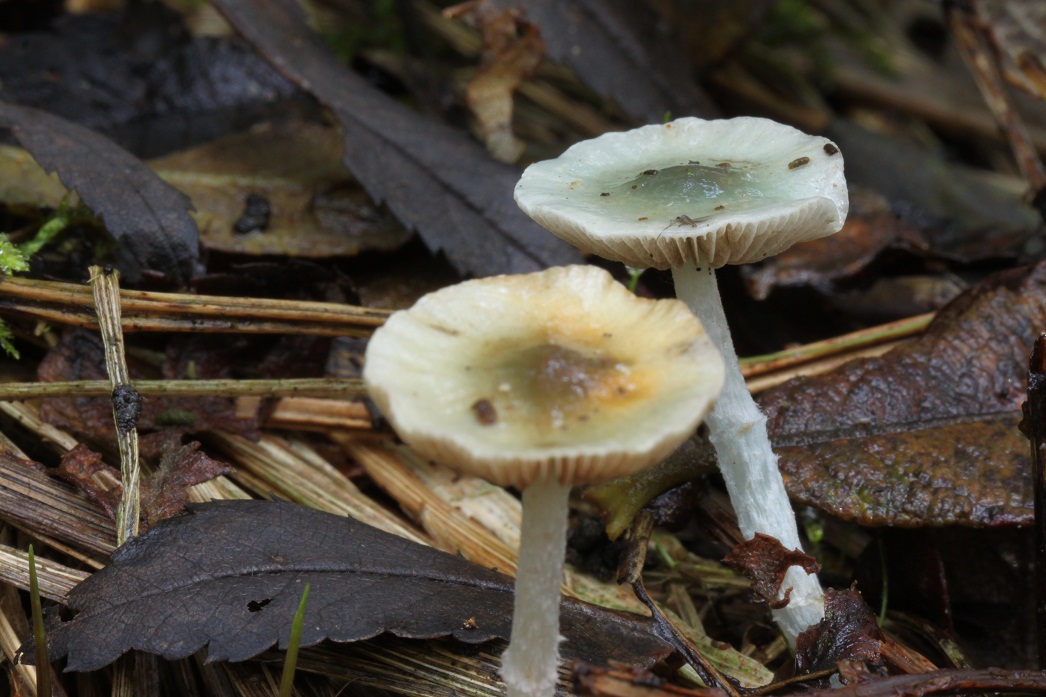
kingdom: Fungi
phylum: Basidiomycota
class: Agaricomycetes
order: Agaricales
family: Strophariaceae
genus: Stropharia
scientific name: Stropharia pseudocyanea
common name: blegblå bredblad
